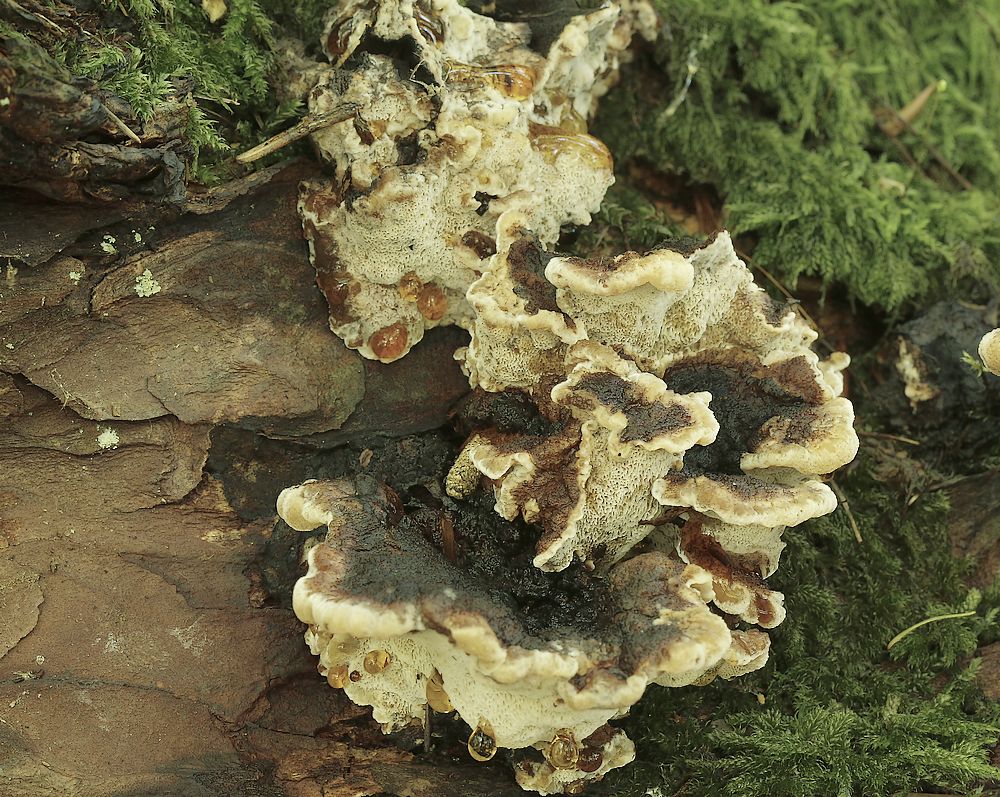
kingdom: Fungi
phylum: Basidiomycota
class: Agaricomycetes
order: Polyporales
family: Ischnodermataceae
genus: Ischnoderma
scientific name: Ischnoderma benzoinum
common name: gran-tjæreporesvamp
